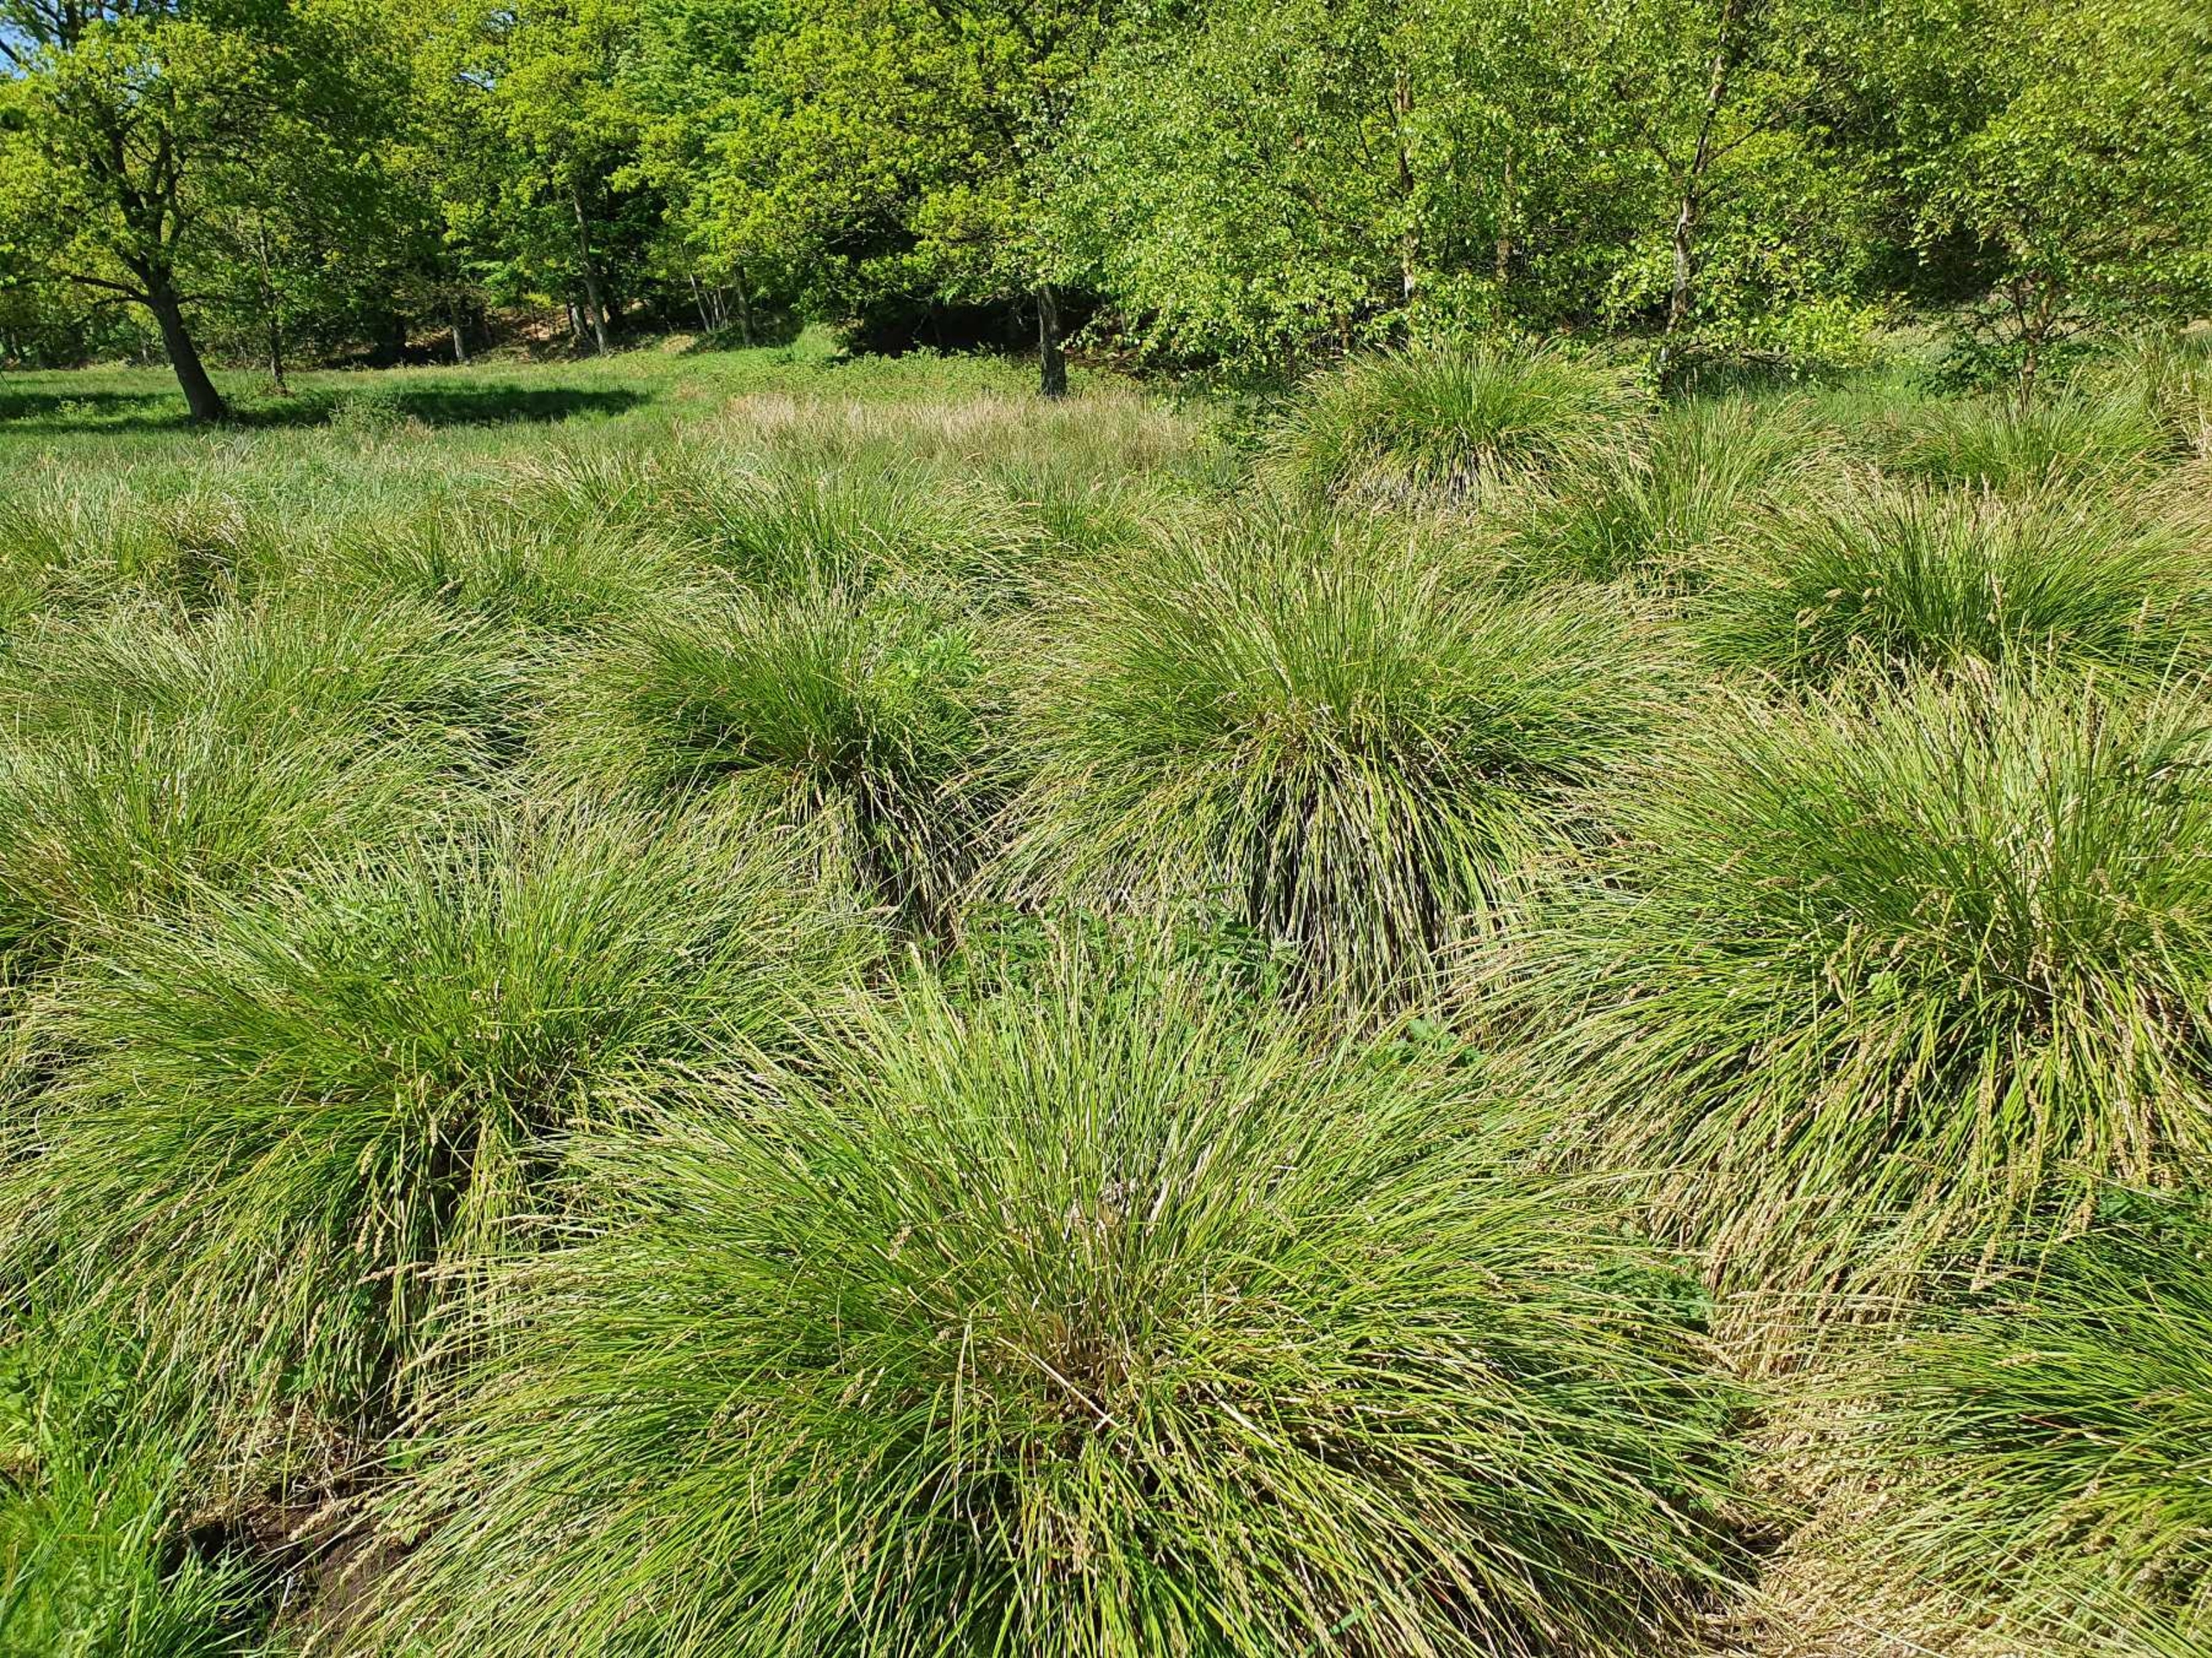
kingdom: Plantae
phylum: Tracheophyta
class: Liliopsida
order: Poales
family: Cyperaceae
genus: Carex
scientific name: Carex paniculata
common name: Top-star
